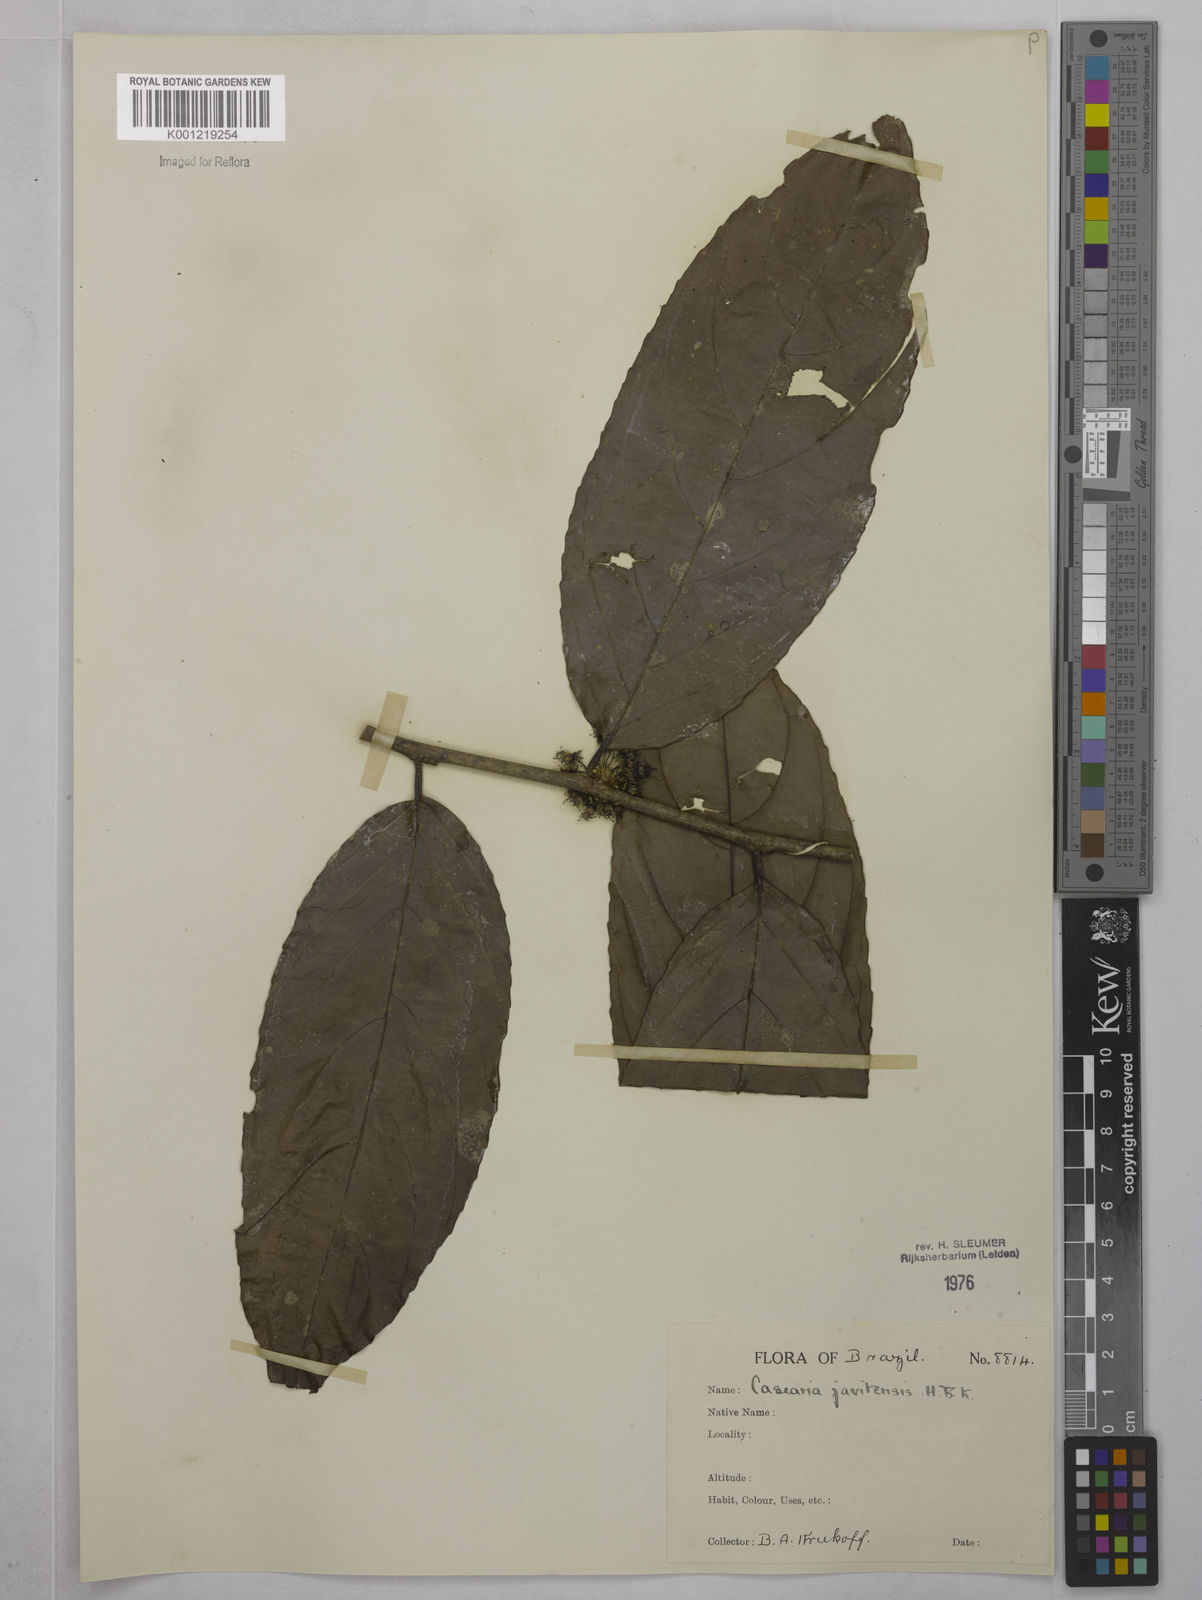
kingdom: Plantae
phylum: Tracheophyta
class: Magnoliopsida
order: Malpighiales
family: Salicaceae
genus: Piparea
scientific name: Piparea multiflora
